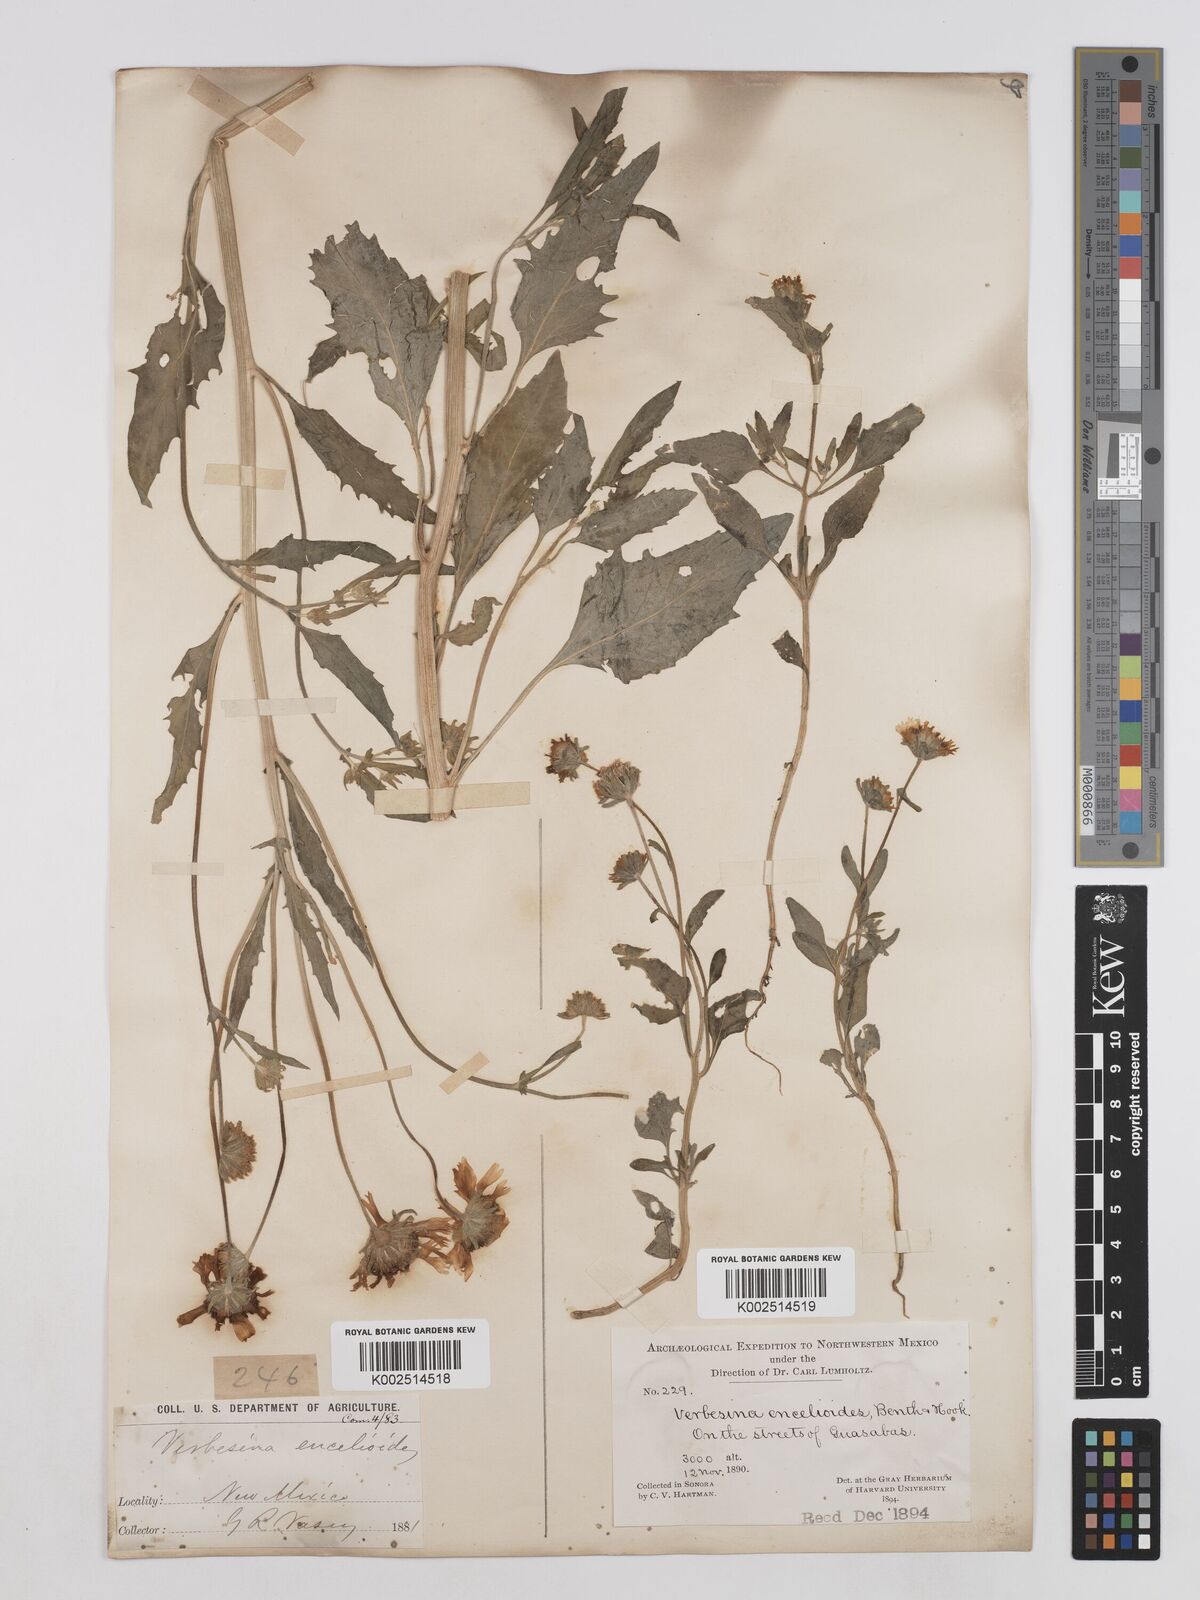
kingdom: Plantae
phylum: Tracheophyta
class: Magnoliopsida
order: Asterales
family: Asteraceae
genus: Verbesina
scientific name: Verbesina encelioides
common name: Golden crownbeard
